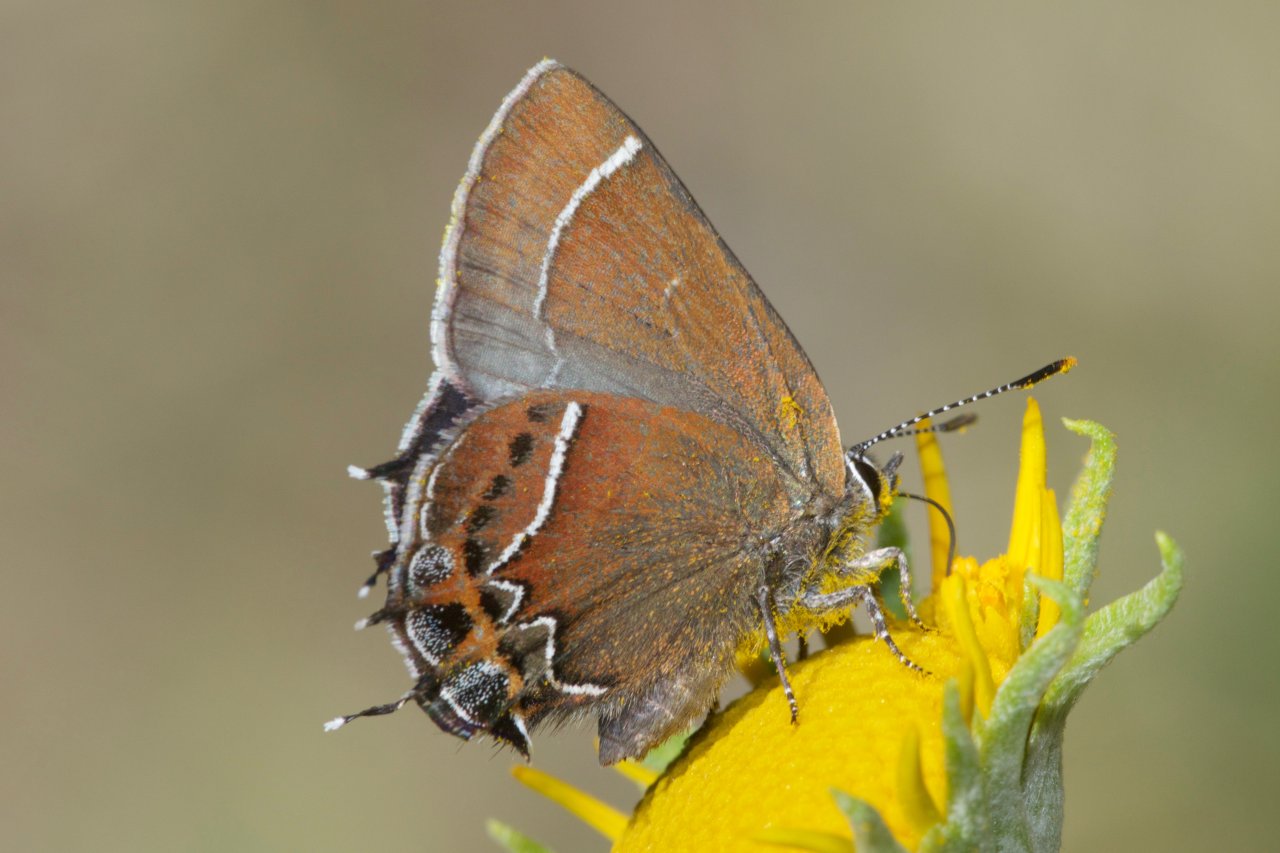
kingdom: Animalia
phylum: Arthropoda
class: Insecta
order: Lepidoptera
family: Lycaenidae
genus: Mitoura
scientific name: Mitoura spinetorum
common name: Thicket Hairstreak
